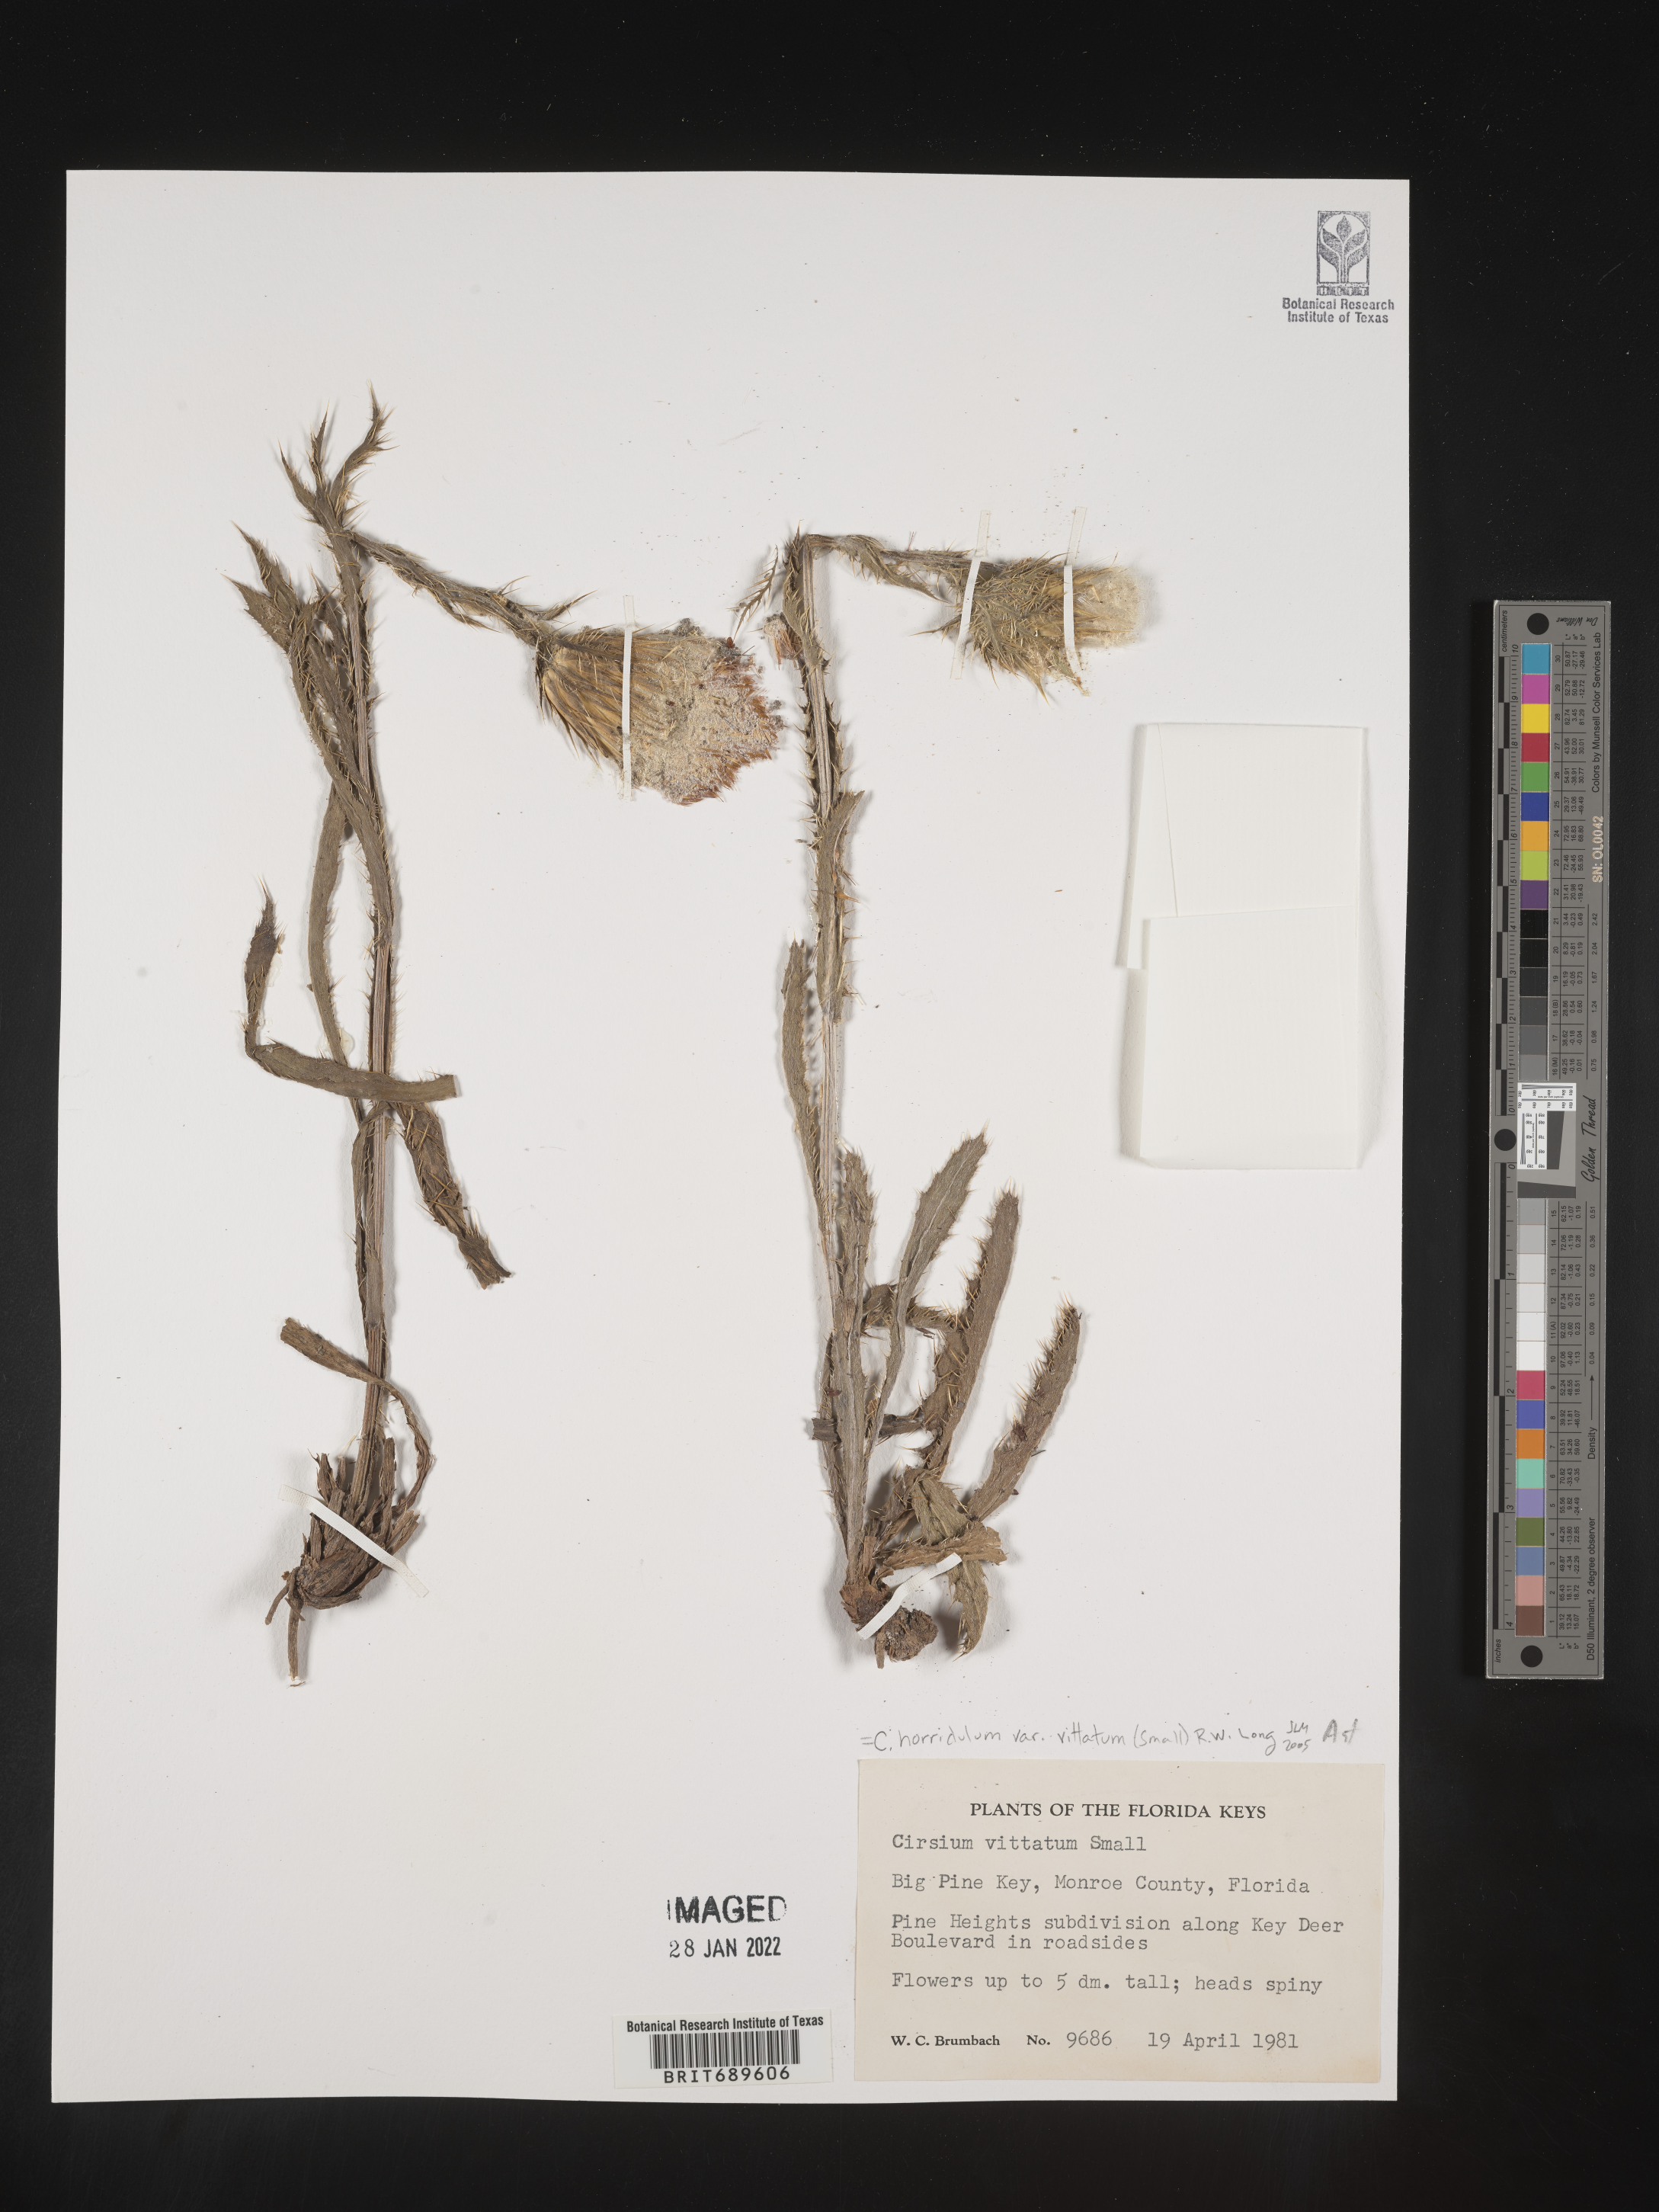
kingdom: Plantae
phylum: Tracheophyta
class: Magnoliopsida
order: Asterales
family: Asteraceae
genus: Cirsium
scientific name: Cirsium horridulum
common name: Bristly thistle
